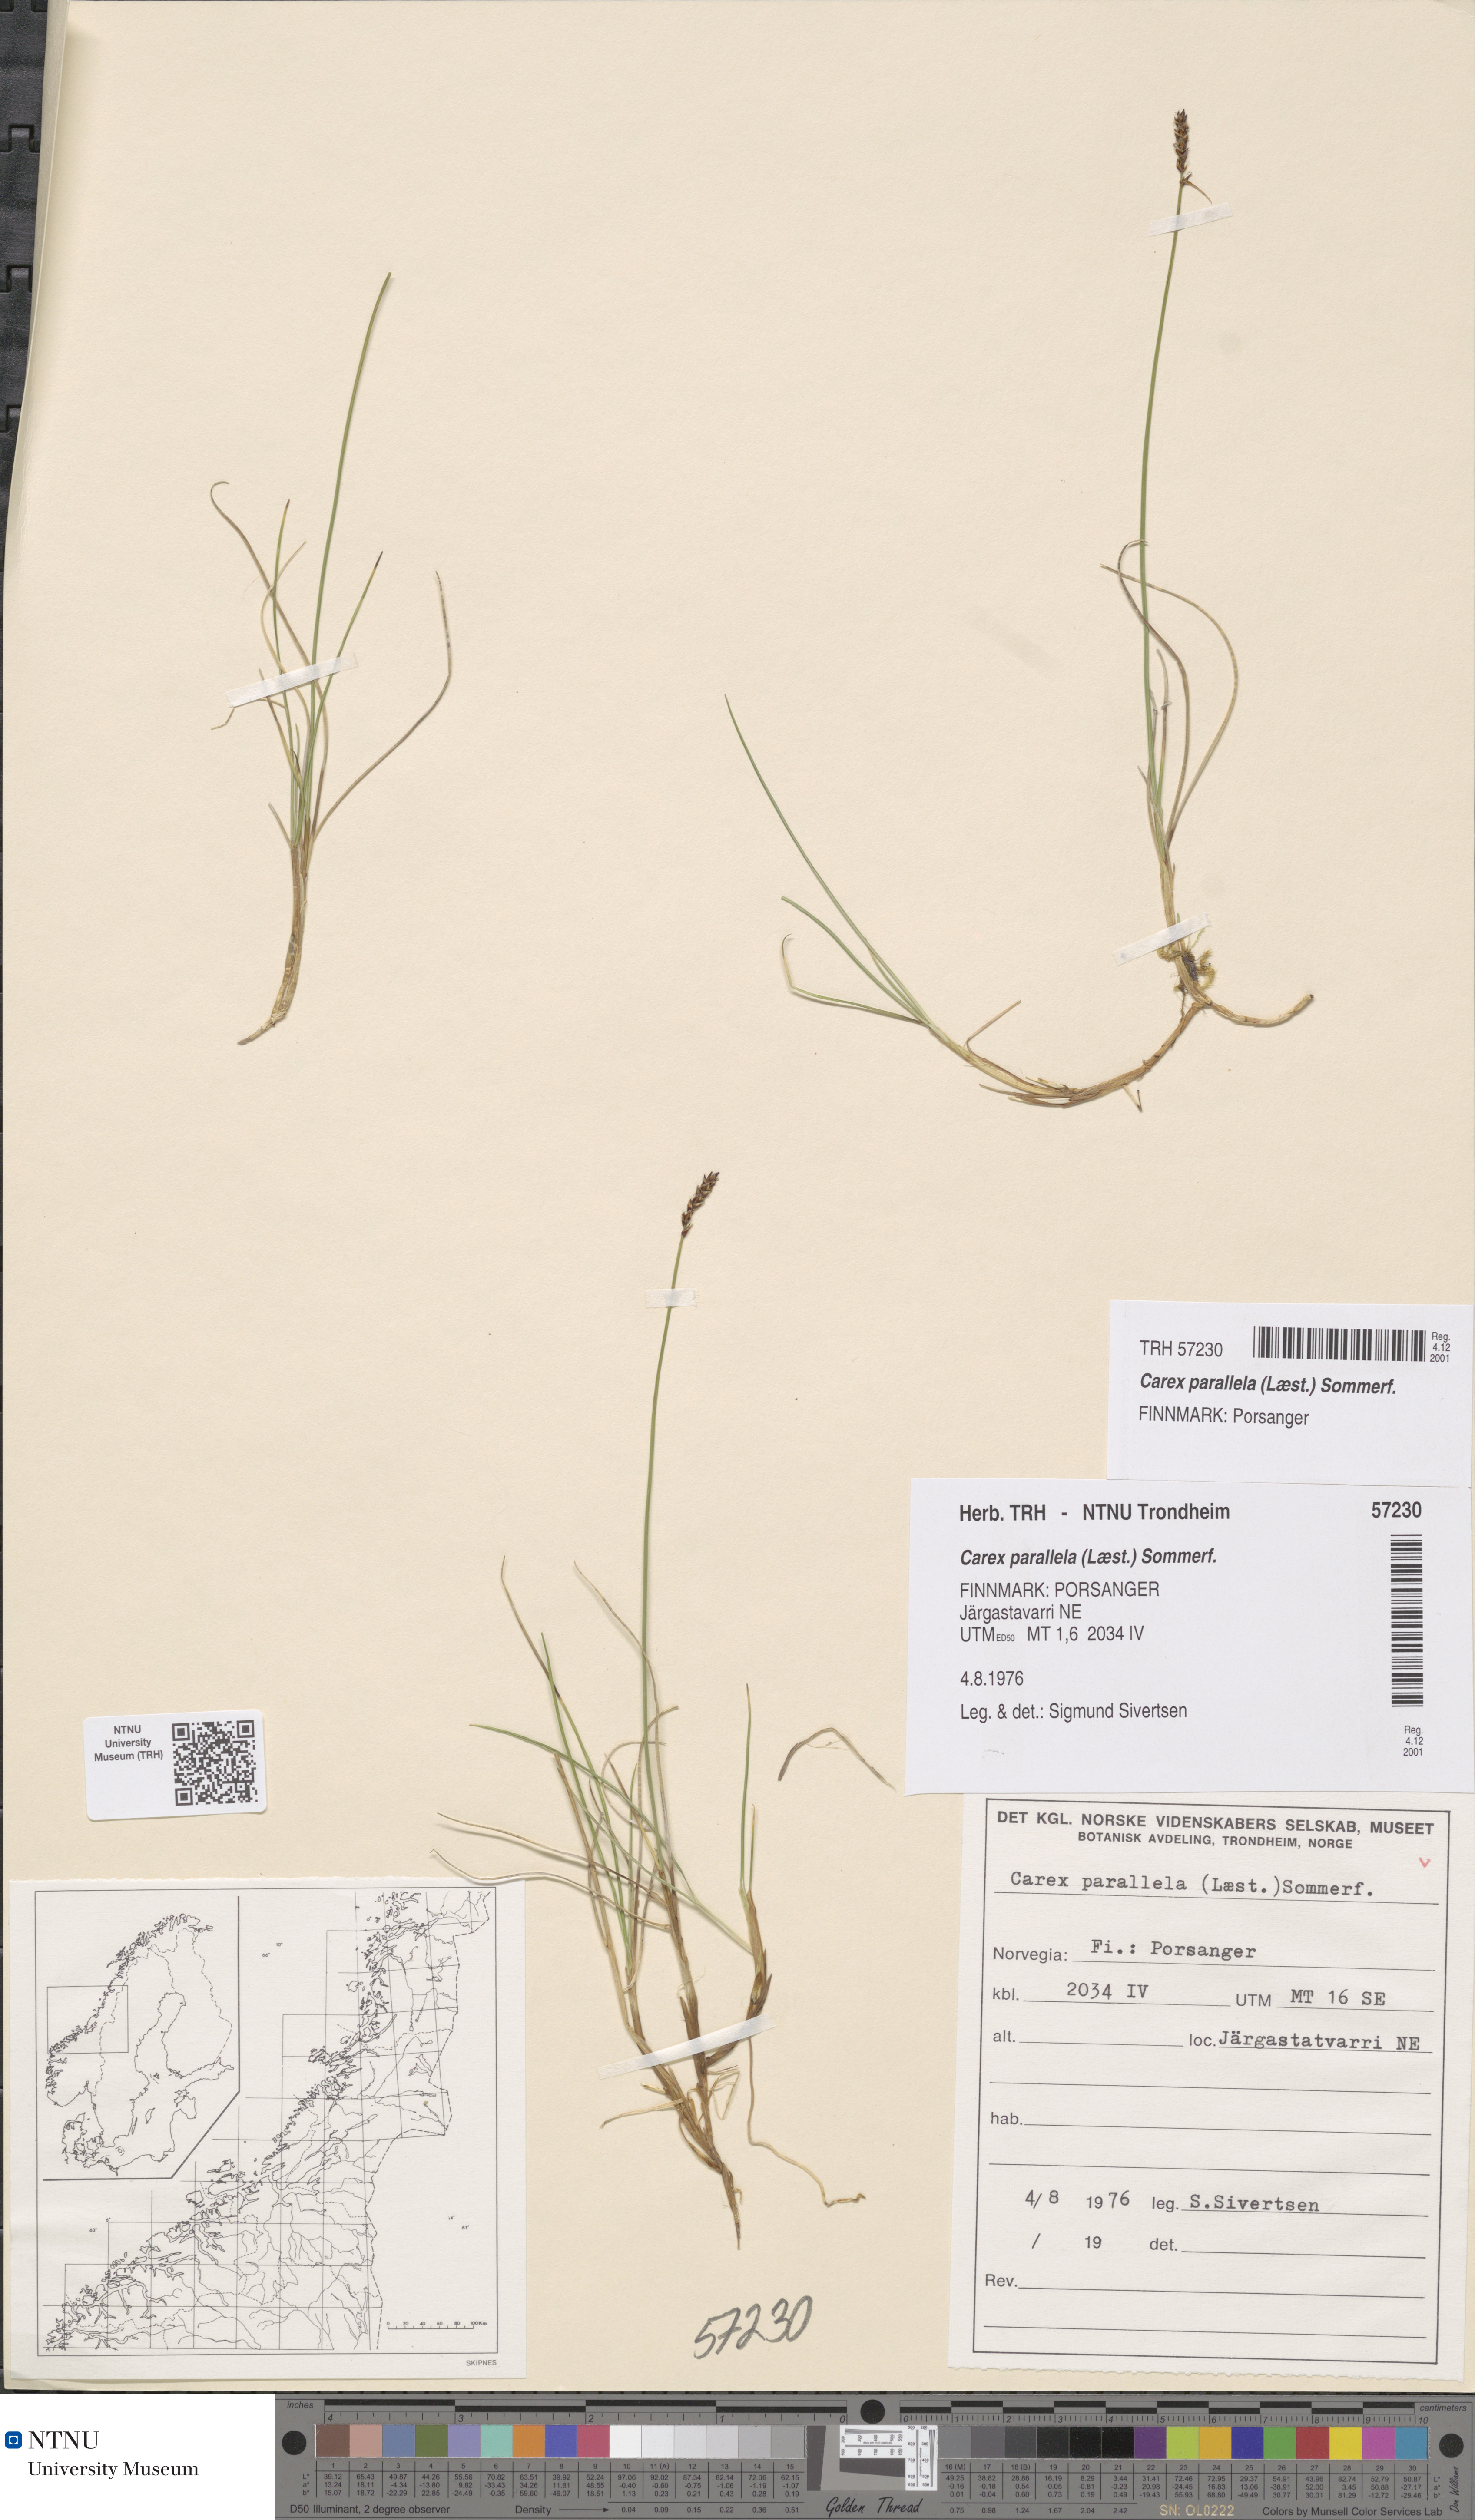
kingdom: Plantae
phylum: Tracheophyta
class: Liliopsida
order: Poales
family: Cyperaceae
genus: Carex
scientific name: Carex parallela
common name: Parallel sedge
